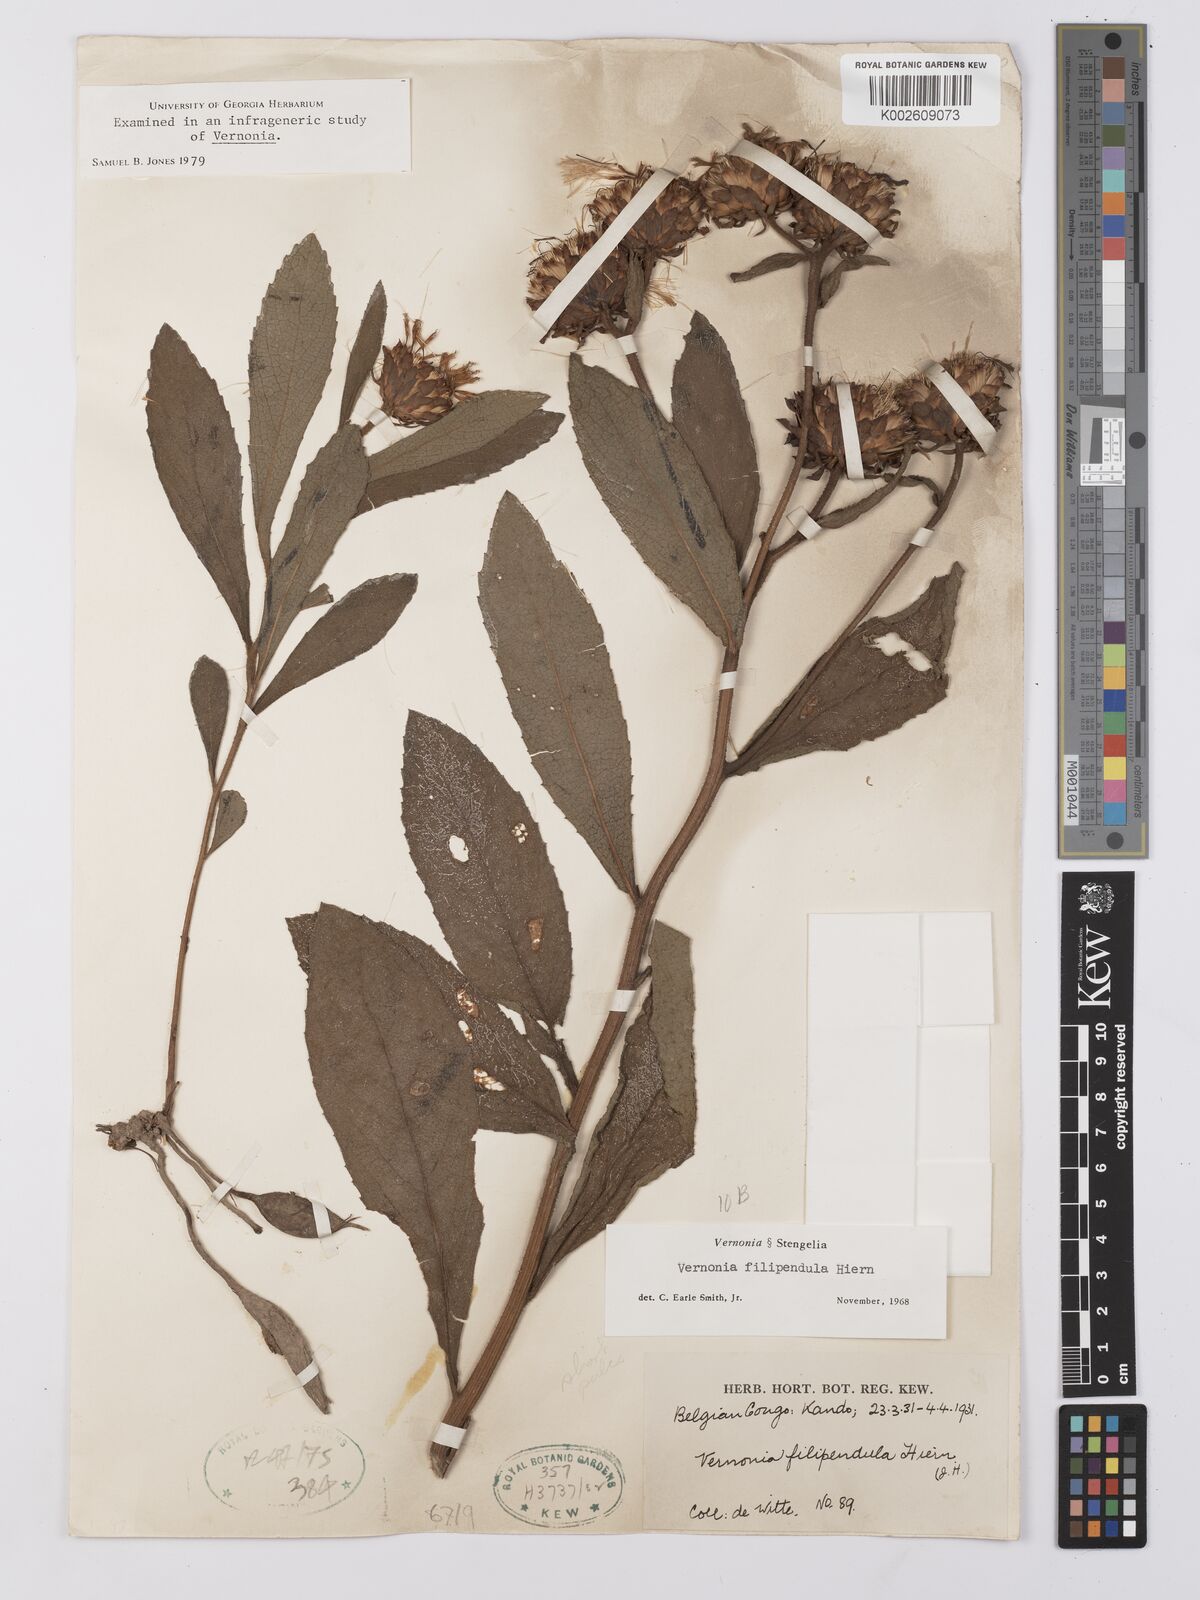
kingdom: Plantae
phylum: Tracheophyta
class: Magnoliopsida
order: Asterales
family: Asteraceae
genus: Baccharoides
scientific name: Baccharoides filipendula
